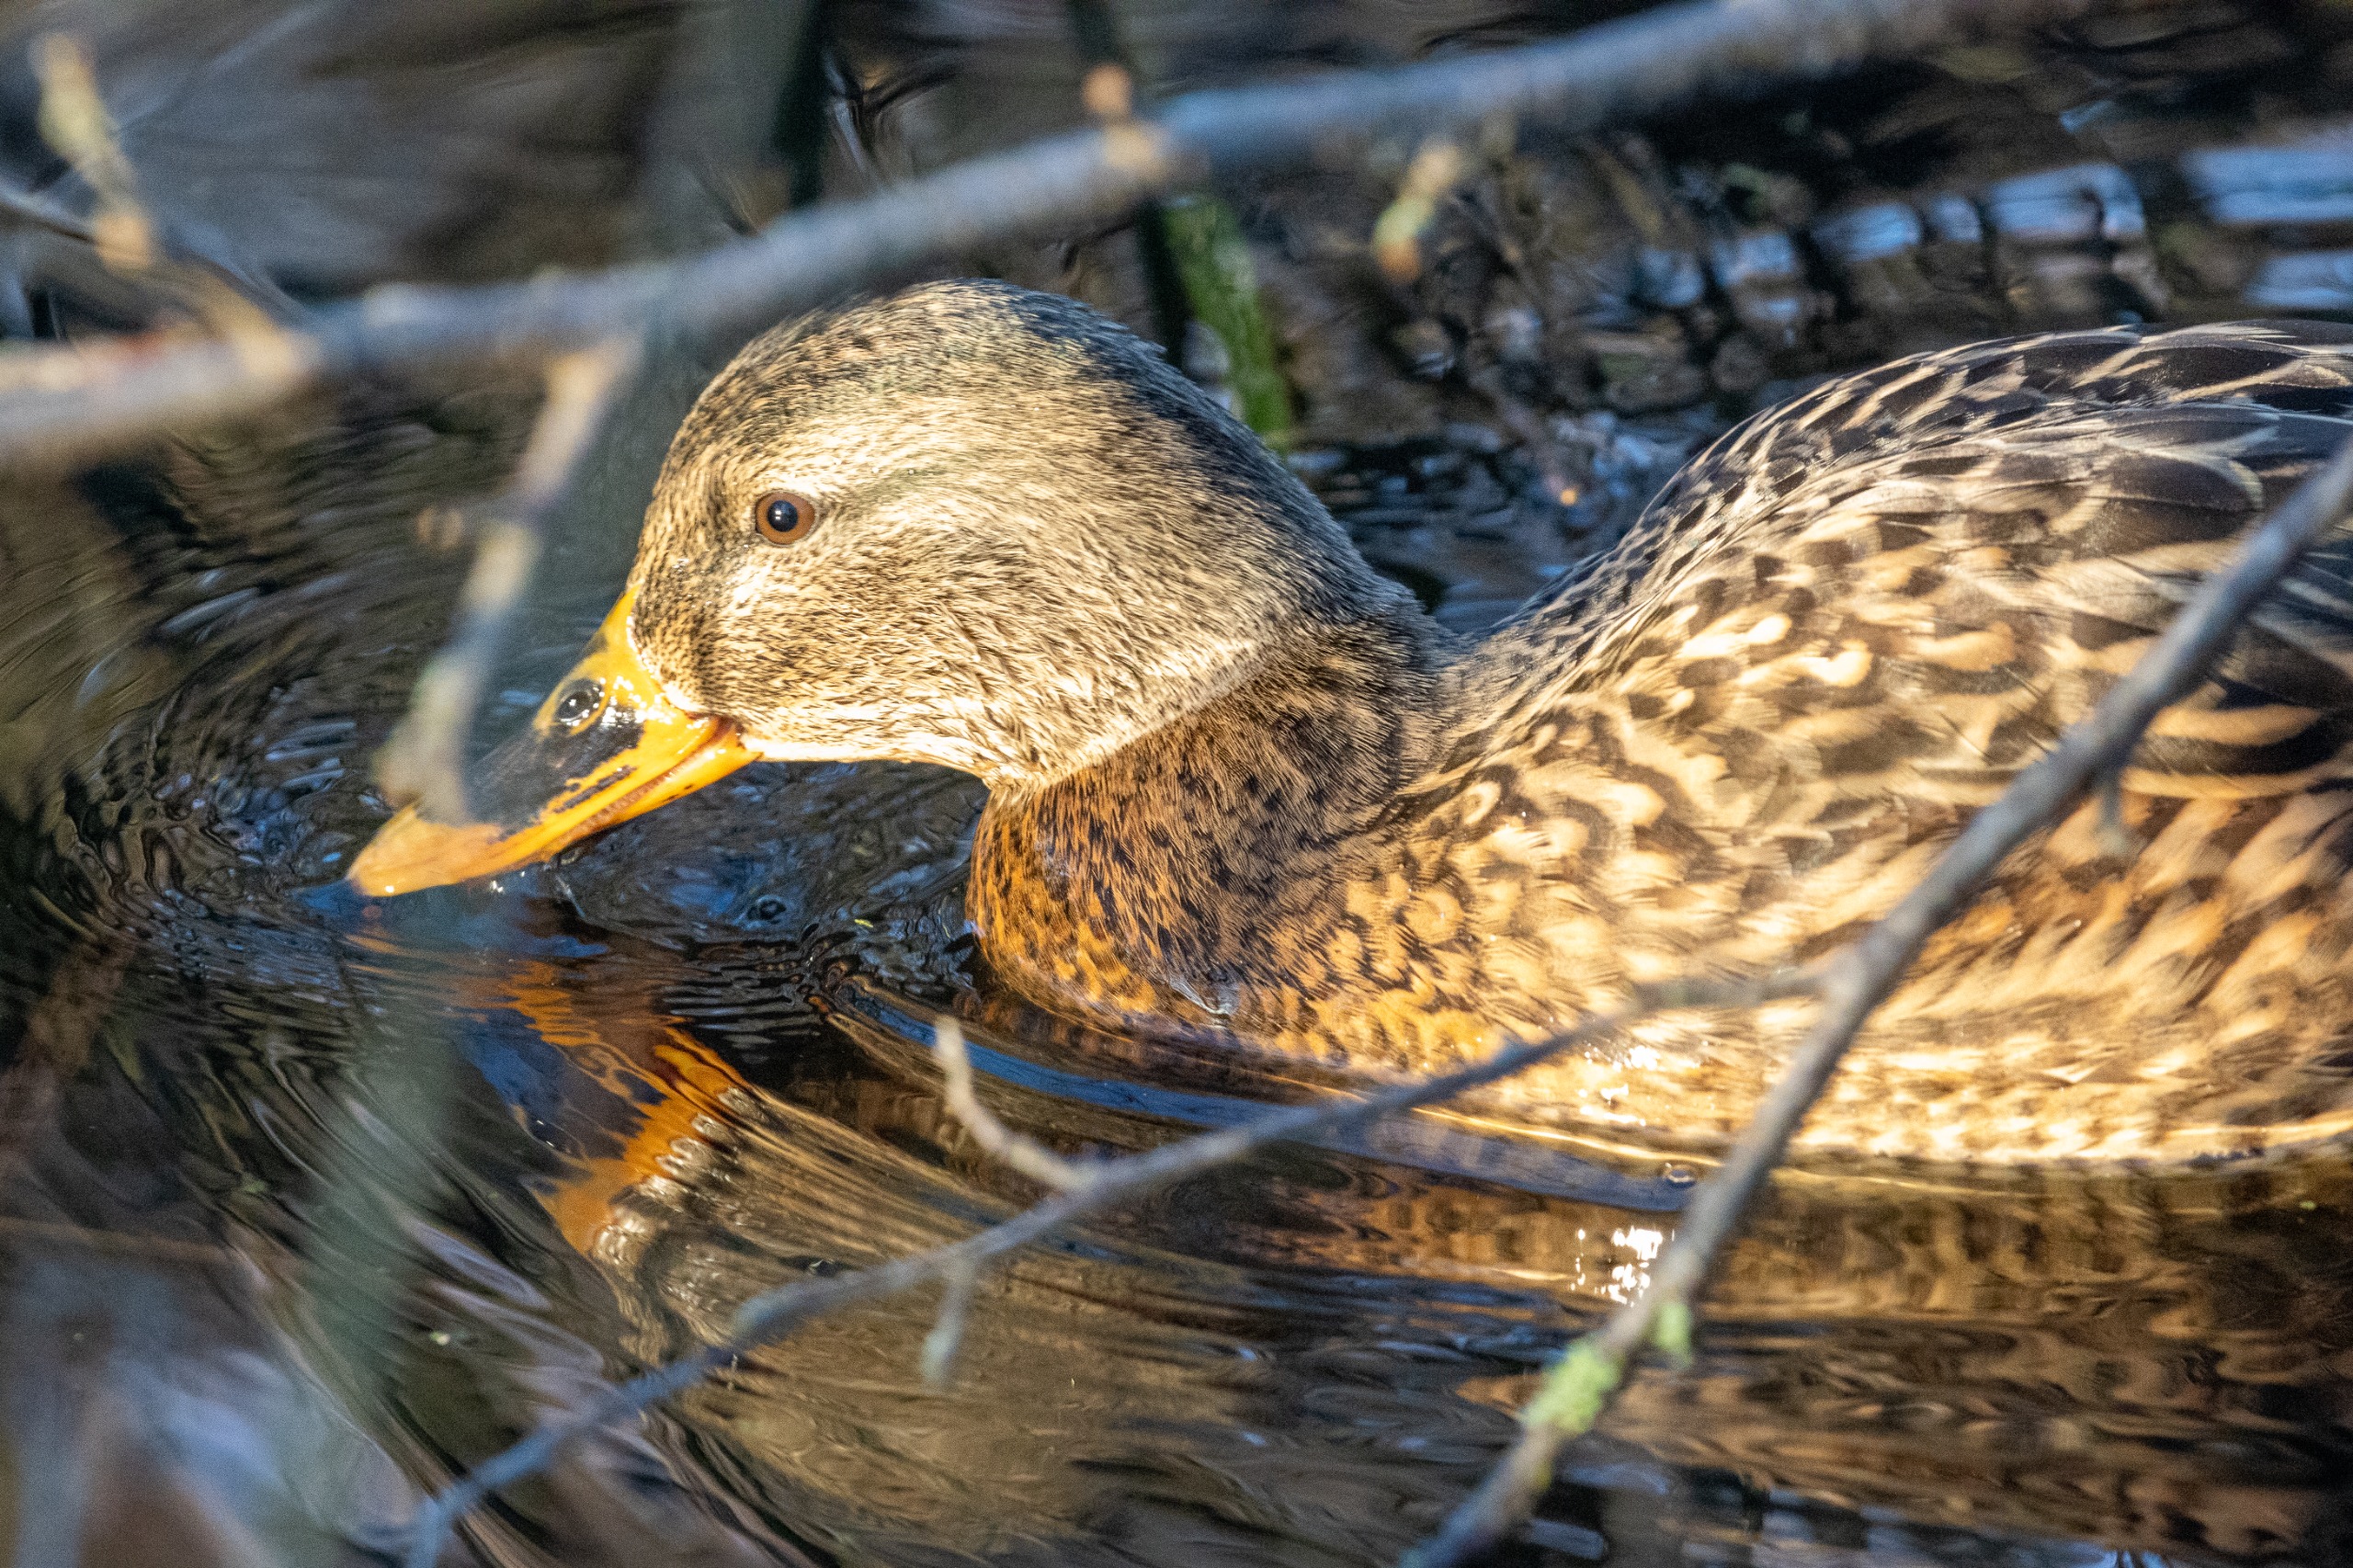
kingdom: Animalia
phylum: Chordata
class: Aves
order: Anseriformes
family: Anatidae
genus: Anas
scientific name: Anas platyrhynchos
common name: Gråand
